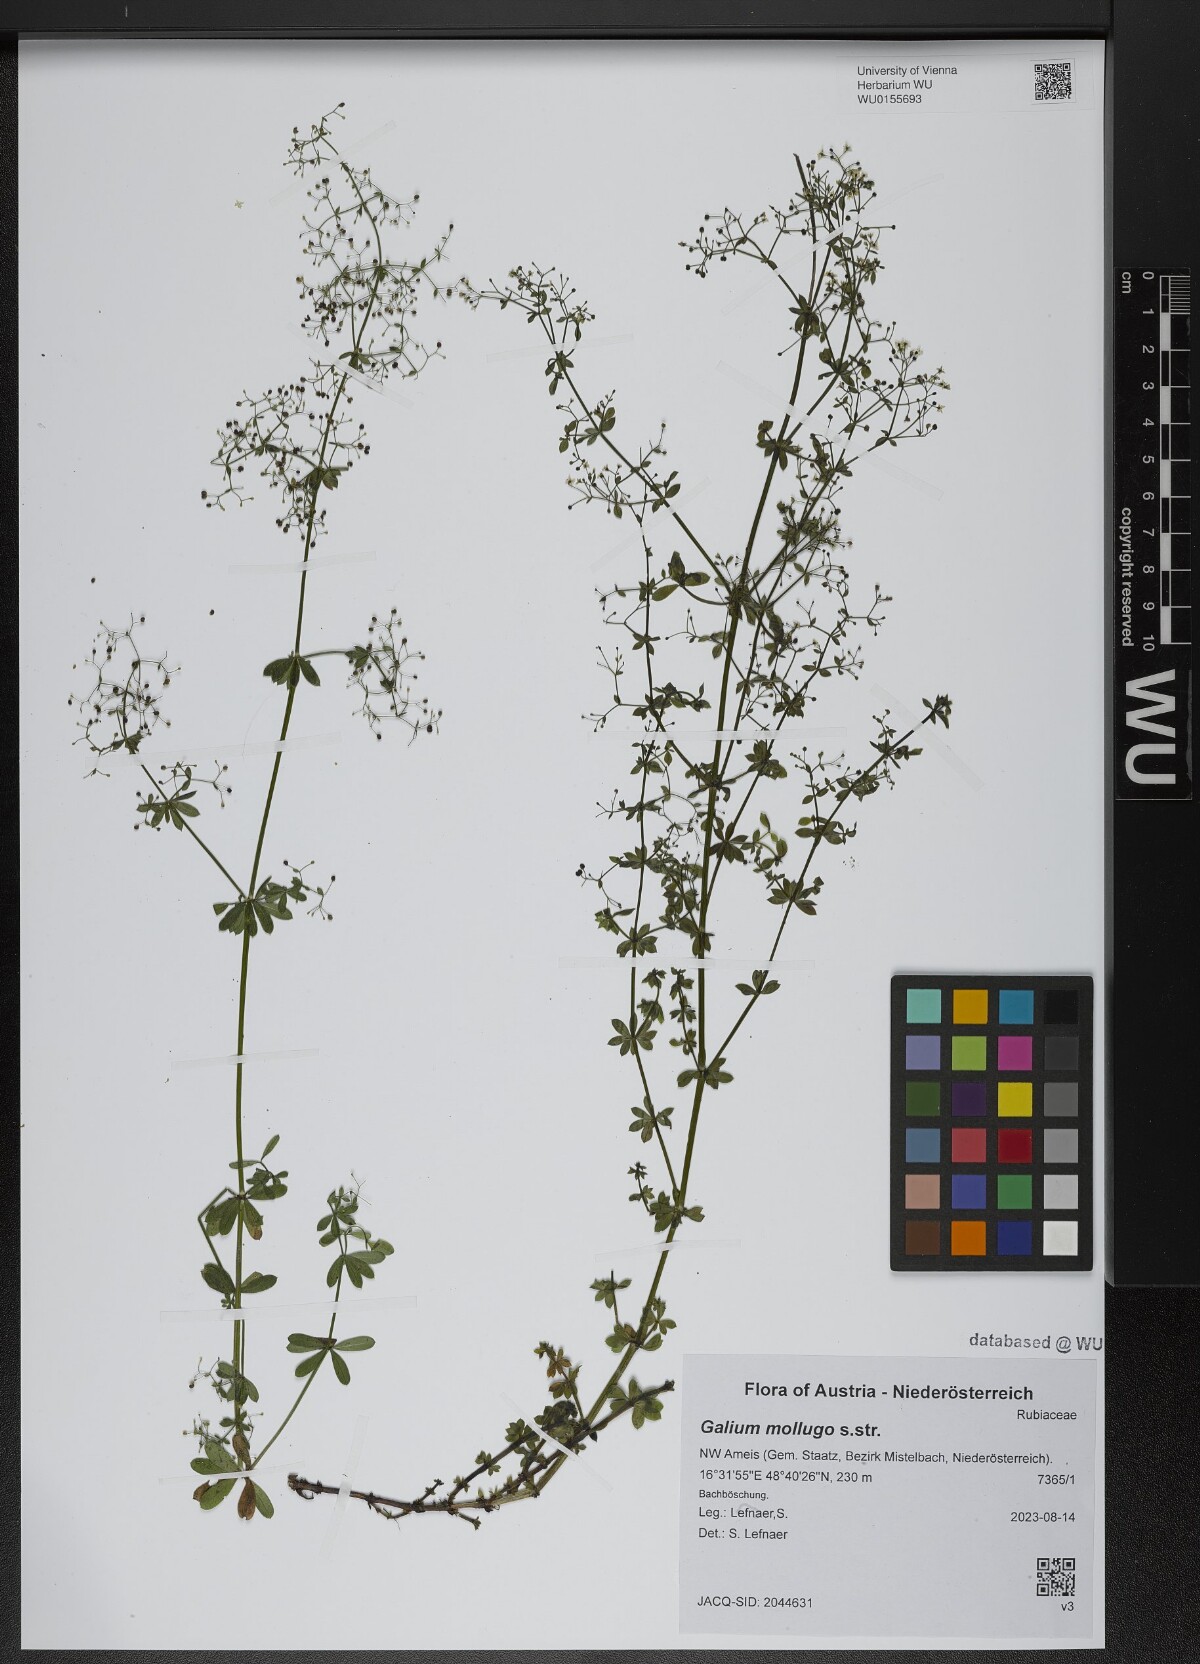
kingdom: Plantae
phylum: Tracheophyta
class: Magnoliopsida
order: Gentianales
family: Rubiaceae
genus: Galium
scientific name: Galium mollugo
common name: Hedge bedstraw
